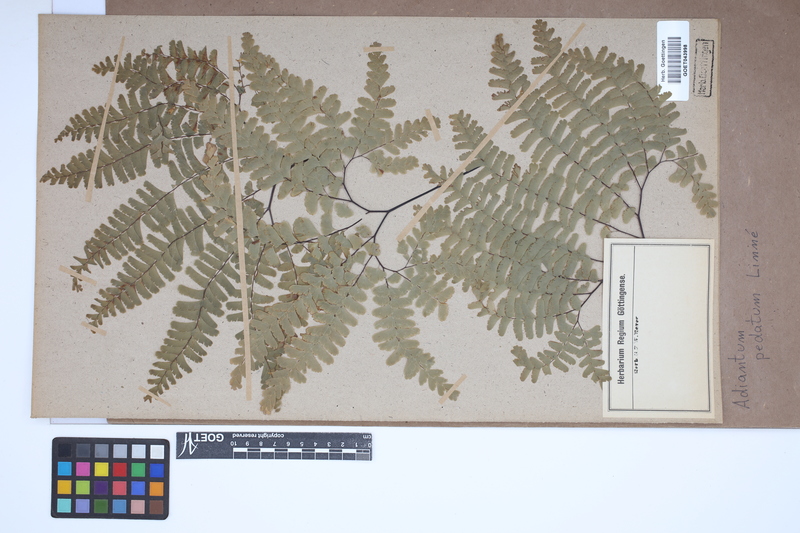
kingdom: Plantae
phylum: Tracheophyta
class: Polypodiopsida
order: Polypodiales
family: Pteridaceae
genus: Adiantum
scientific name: Adiantum pedatum
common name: Five-finger fern
